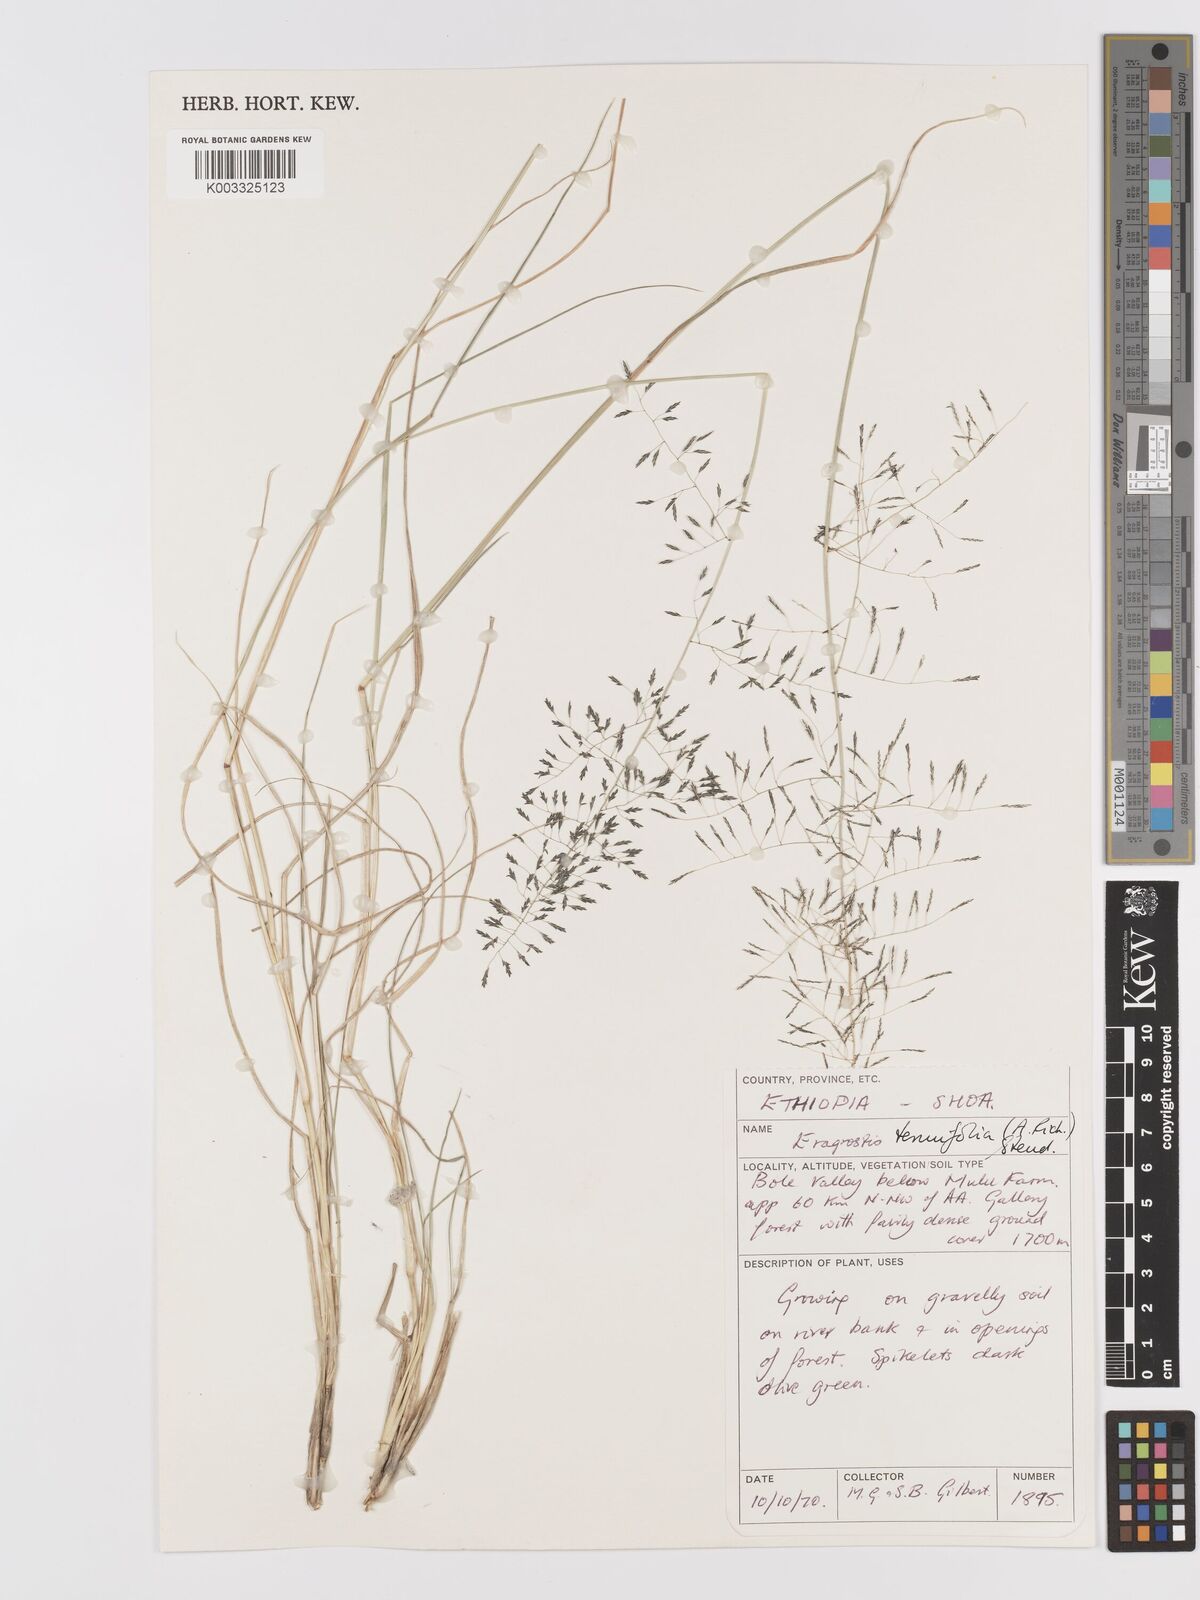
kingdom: Plantae
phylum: Tracheophyta
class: Liliopsida
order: Poales
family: Poaceae
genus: Eragrostis
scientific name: Eragrostis tenuifolia
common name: Elastic grass
